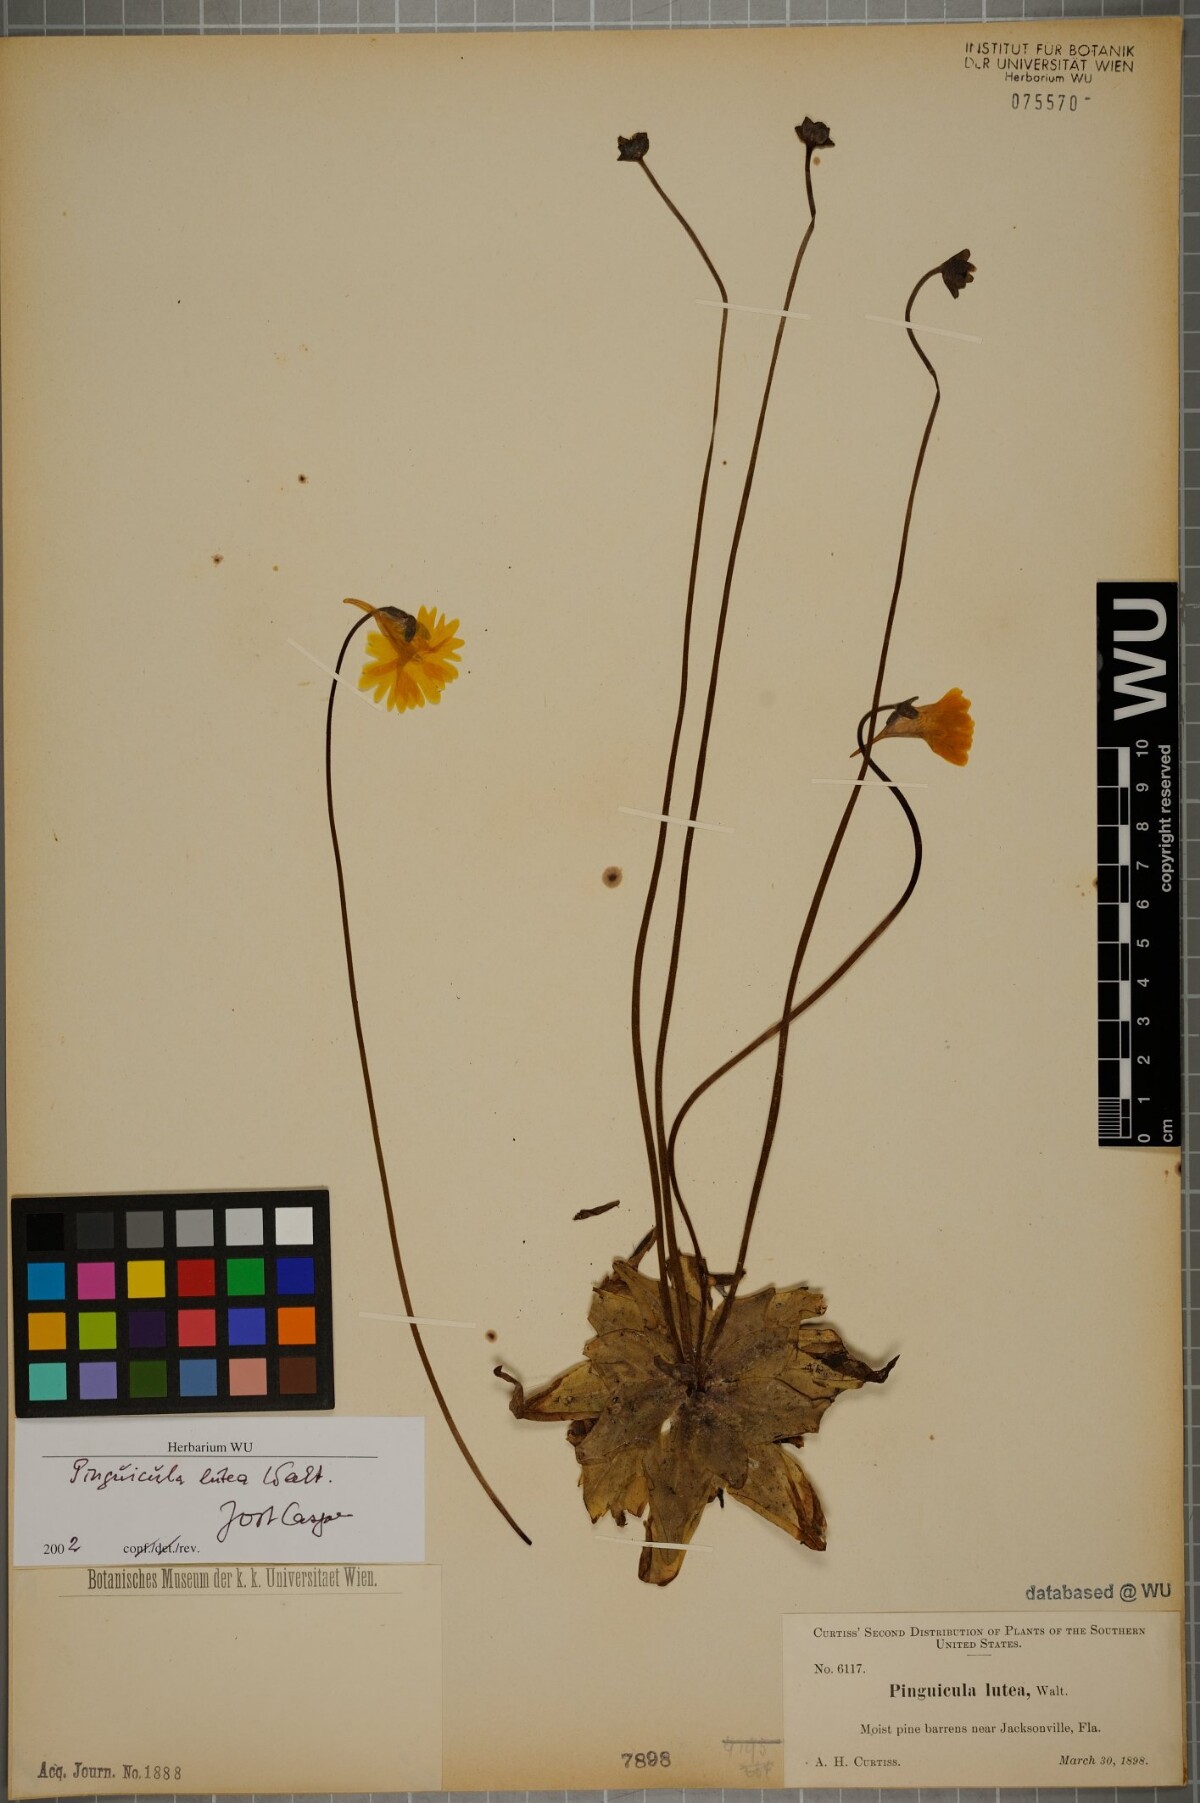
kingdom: Plantae
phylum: Tracheophyta
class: Magnoliopsida
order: Lamiales
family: Lentibulariaceae
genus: Pinguicula
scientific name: Pinguicula lutea
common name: Yellow butterwort
